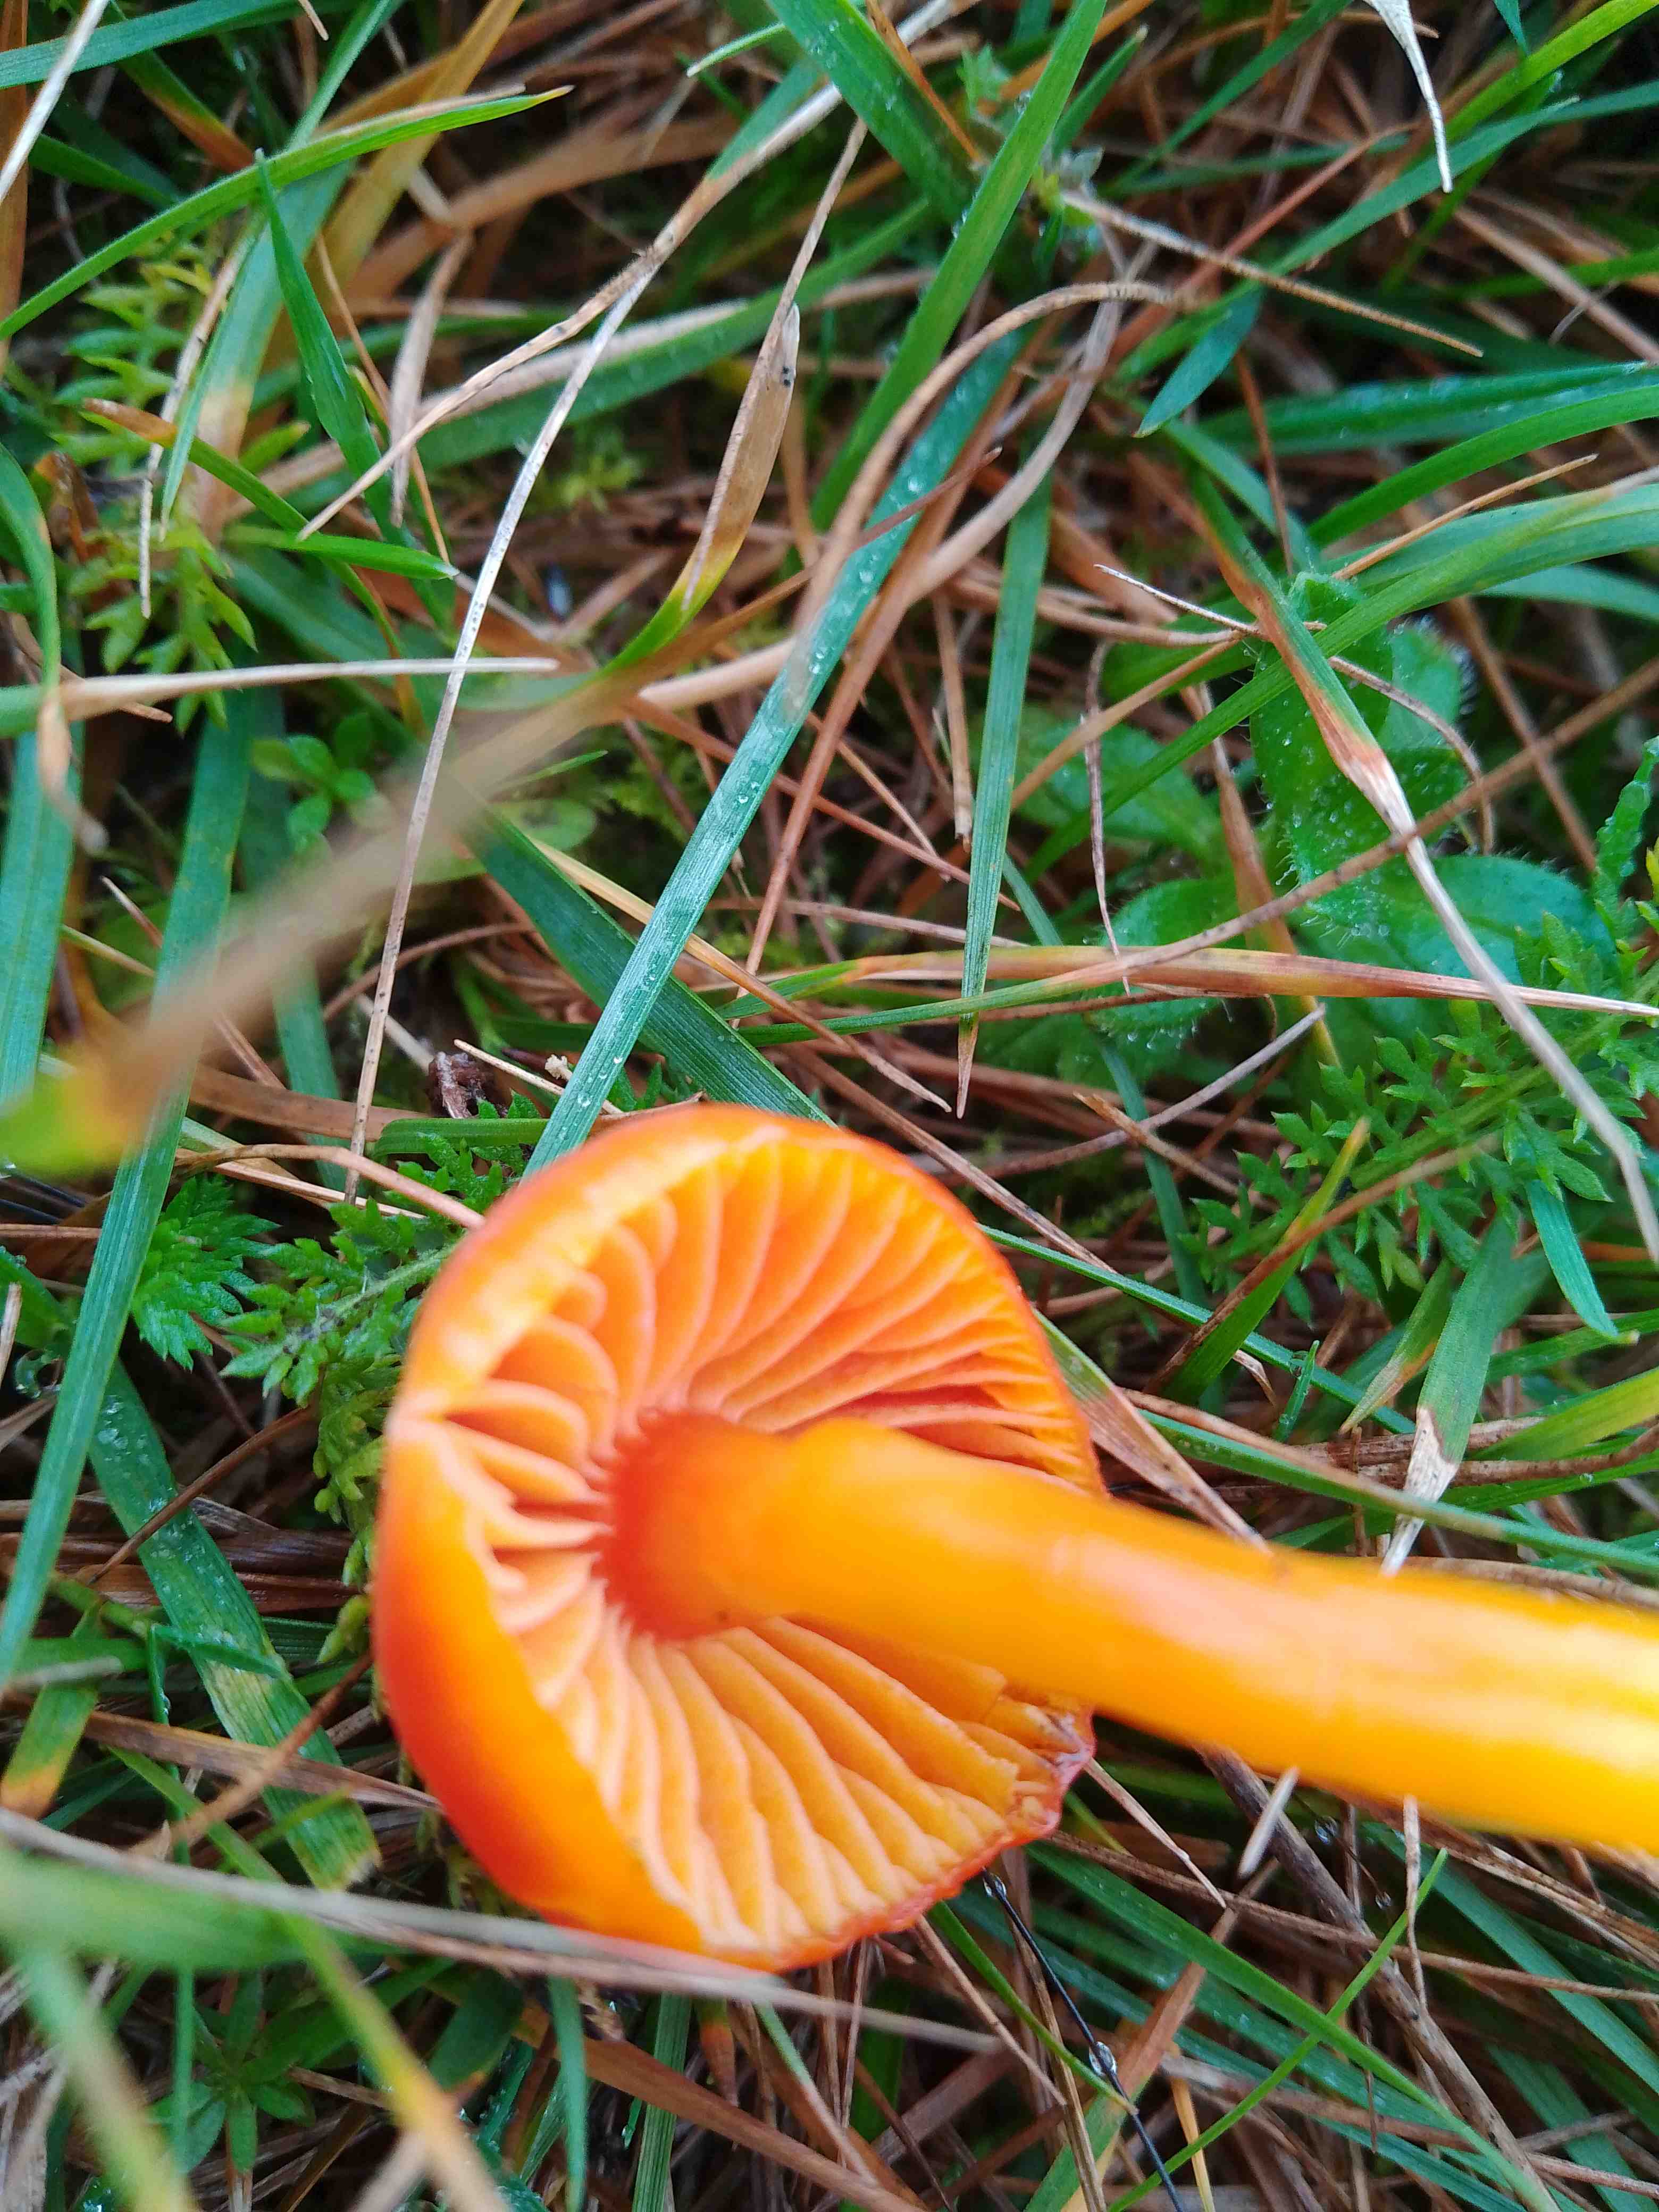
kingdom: Fungi
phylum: Basidiomycota
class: Agaricomycetes
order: Agaricales
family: Hygrophoraceae
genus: Hygrocybe
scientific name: Hygrocybe coccinea
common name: cinnober-vokshat
